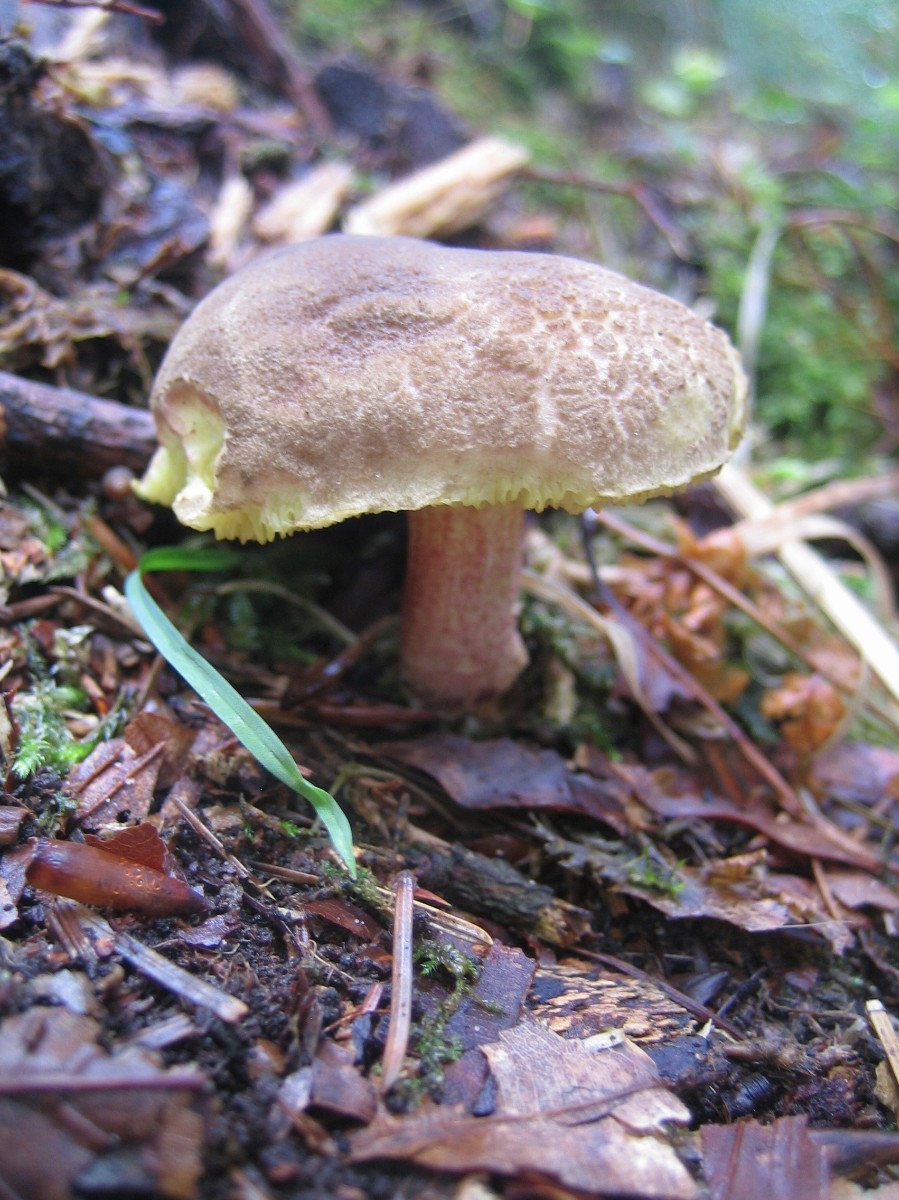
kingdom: Fungi
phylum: Basidiomycota
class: Agaricomycetes
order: Boletales
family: Boletaceae
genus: Xerocomellus
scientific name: Xerocomellus chrysenteron
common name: rødsprukken rørhat
